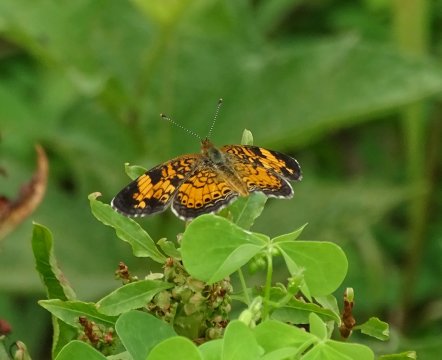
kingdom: Animalia
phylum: Arthropoda
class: Insecta
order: Lepidoptera
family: Nymphalidae
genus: Phyciodes
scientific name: Phyciodes tharos
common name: Pearl Crescent
